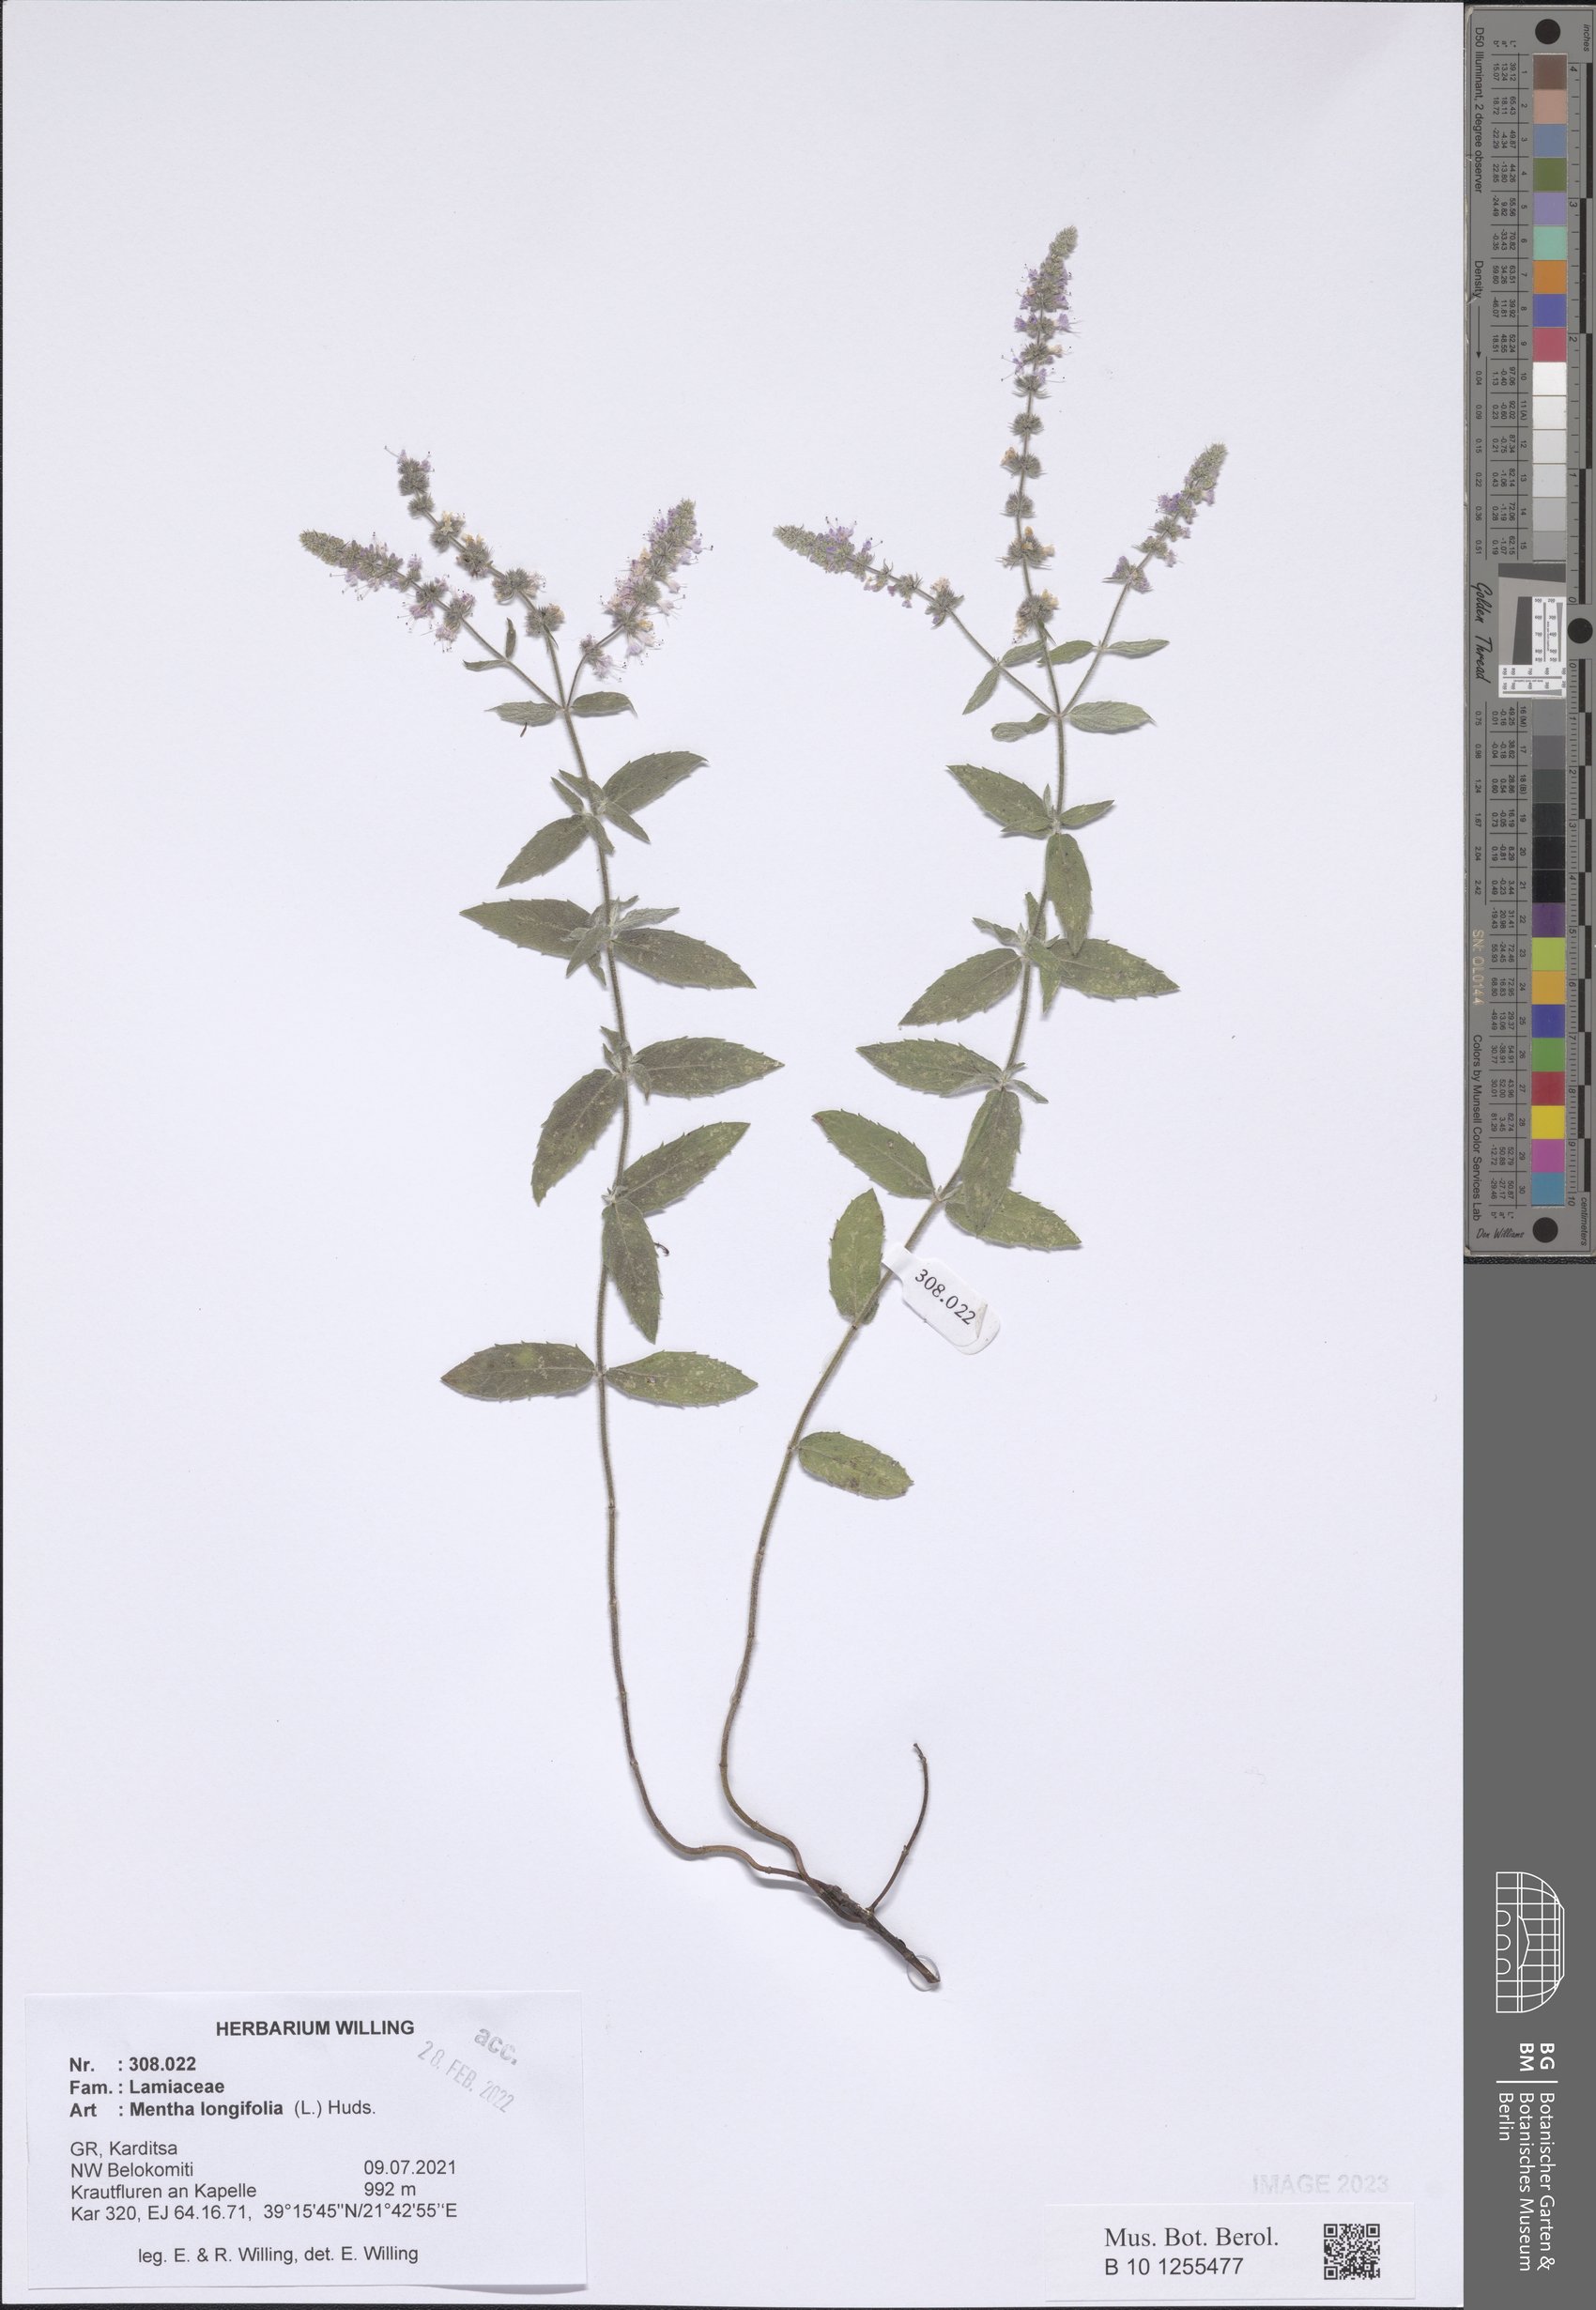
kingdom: Plantae
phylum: Tracheophyta
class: Magnoliopsida
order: Lamiales
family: Lamiaceae
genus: Mentha
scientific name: Mentha longifolia
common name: Horse mint
